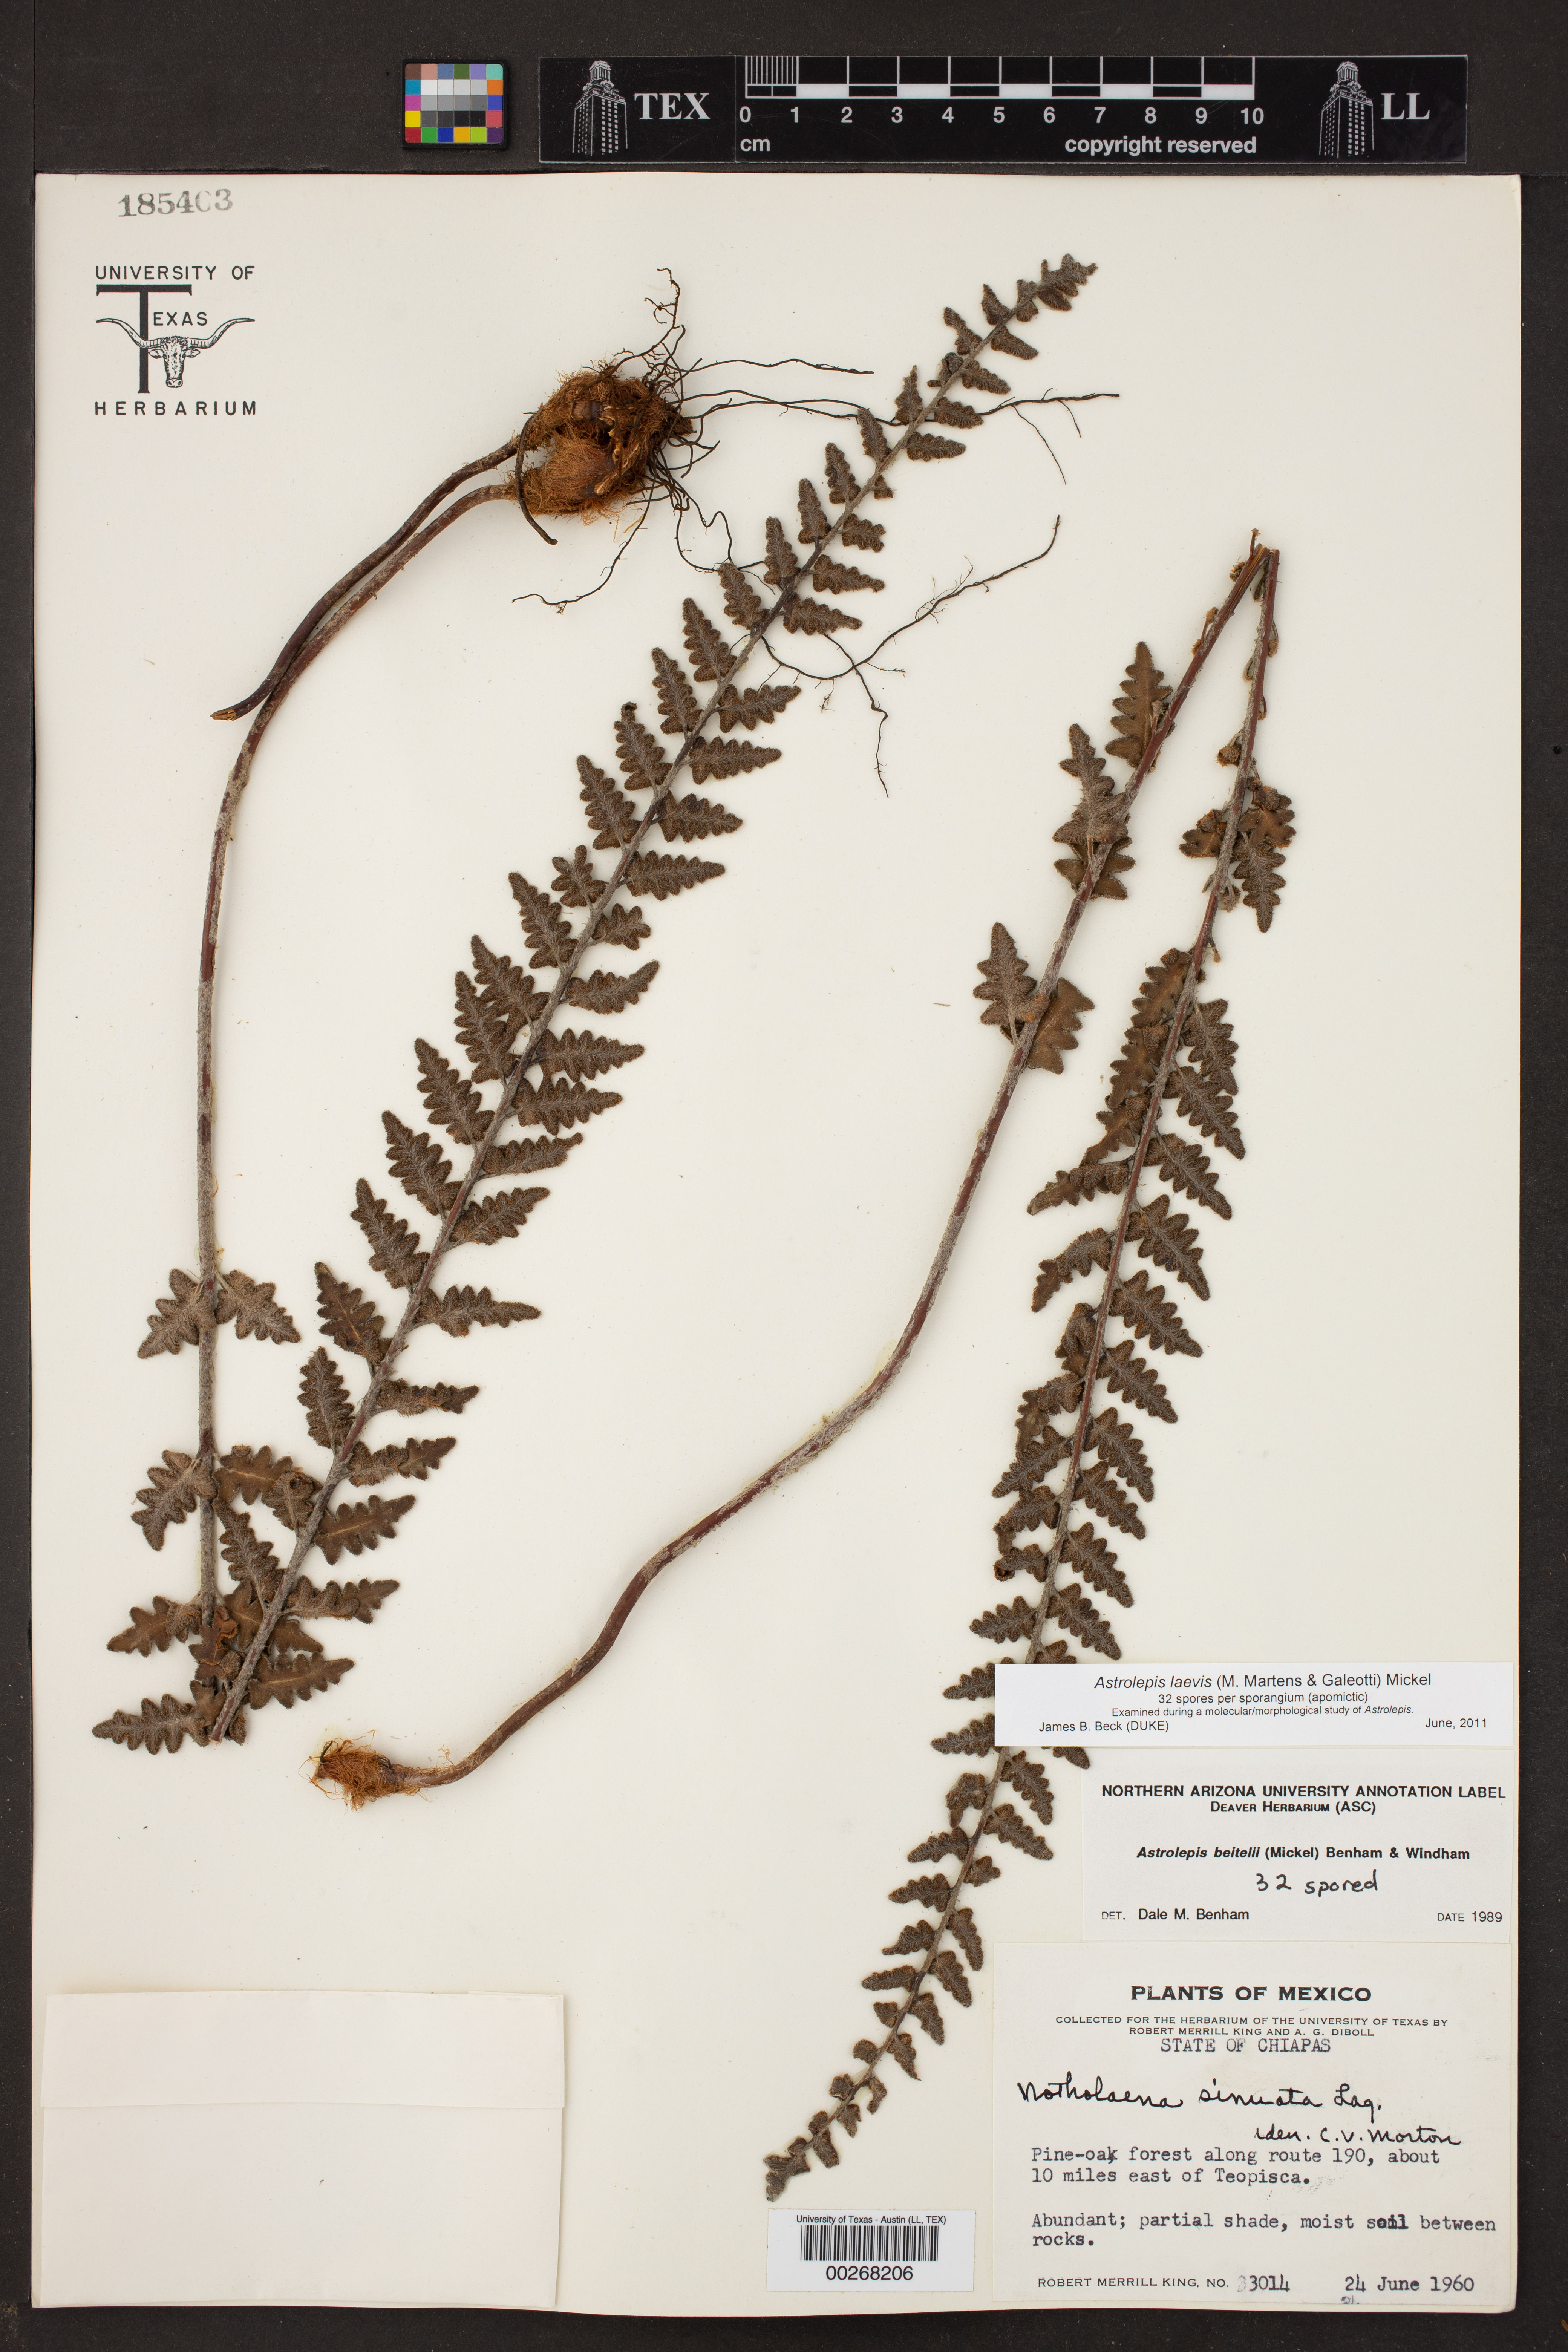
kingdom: Plantae
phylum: Tracheophyta
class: Polypodiopsida
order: Polypodiales
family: Pteridaceae
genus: Astrolepis
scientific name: Astrolepis laevis
